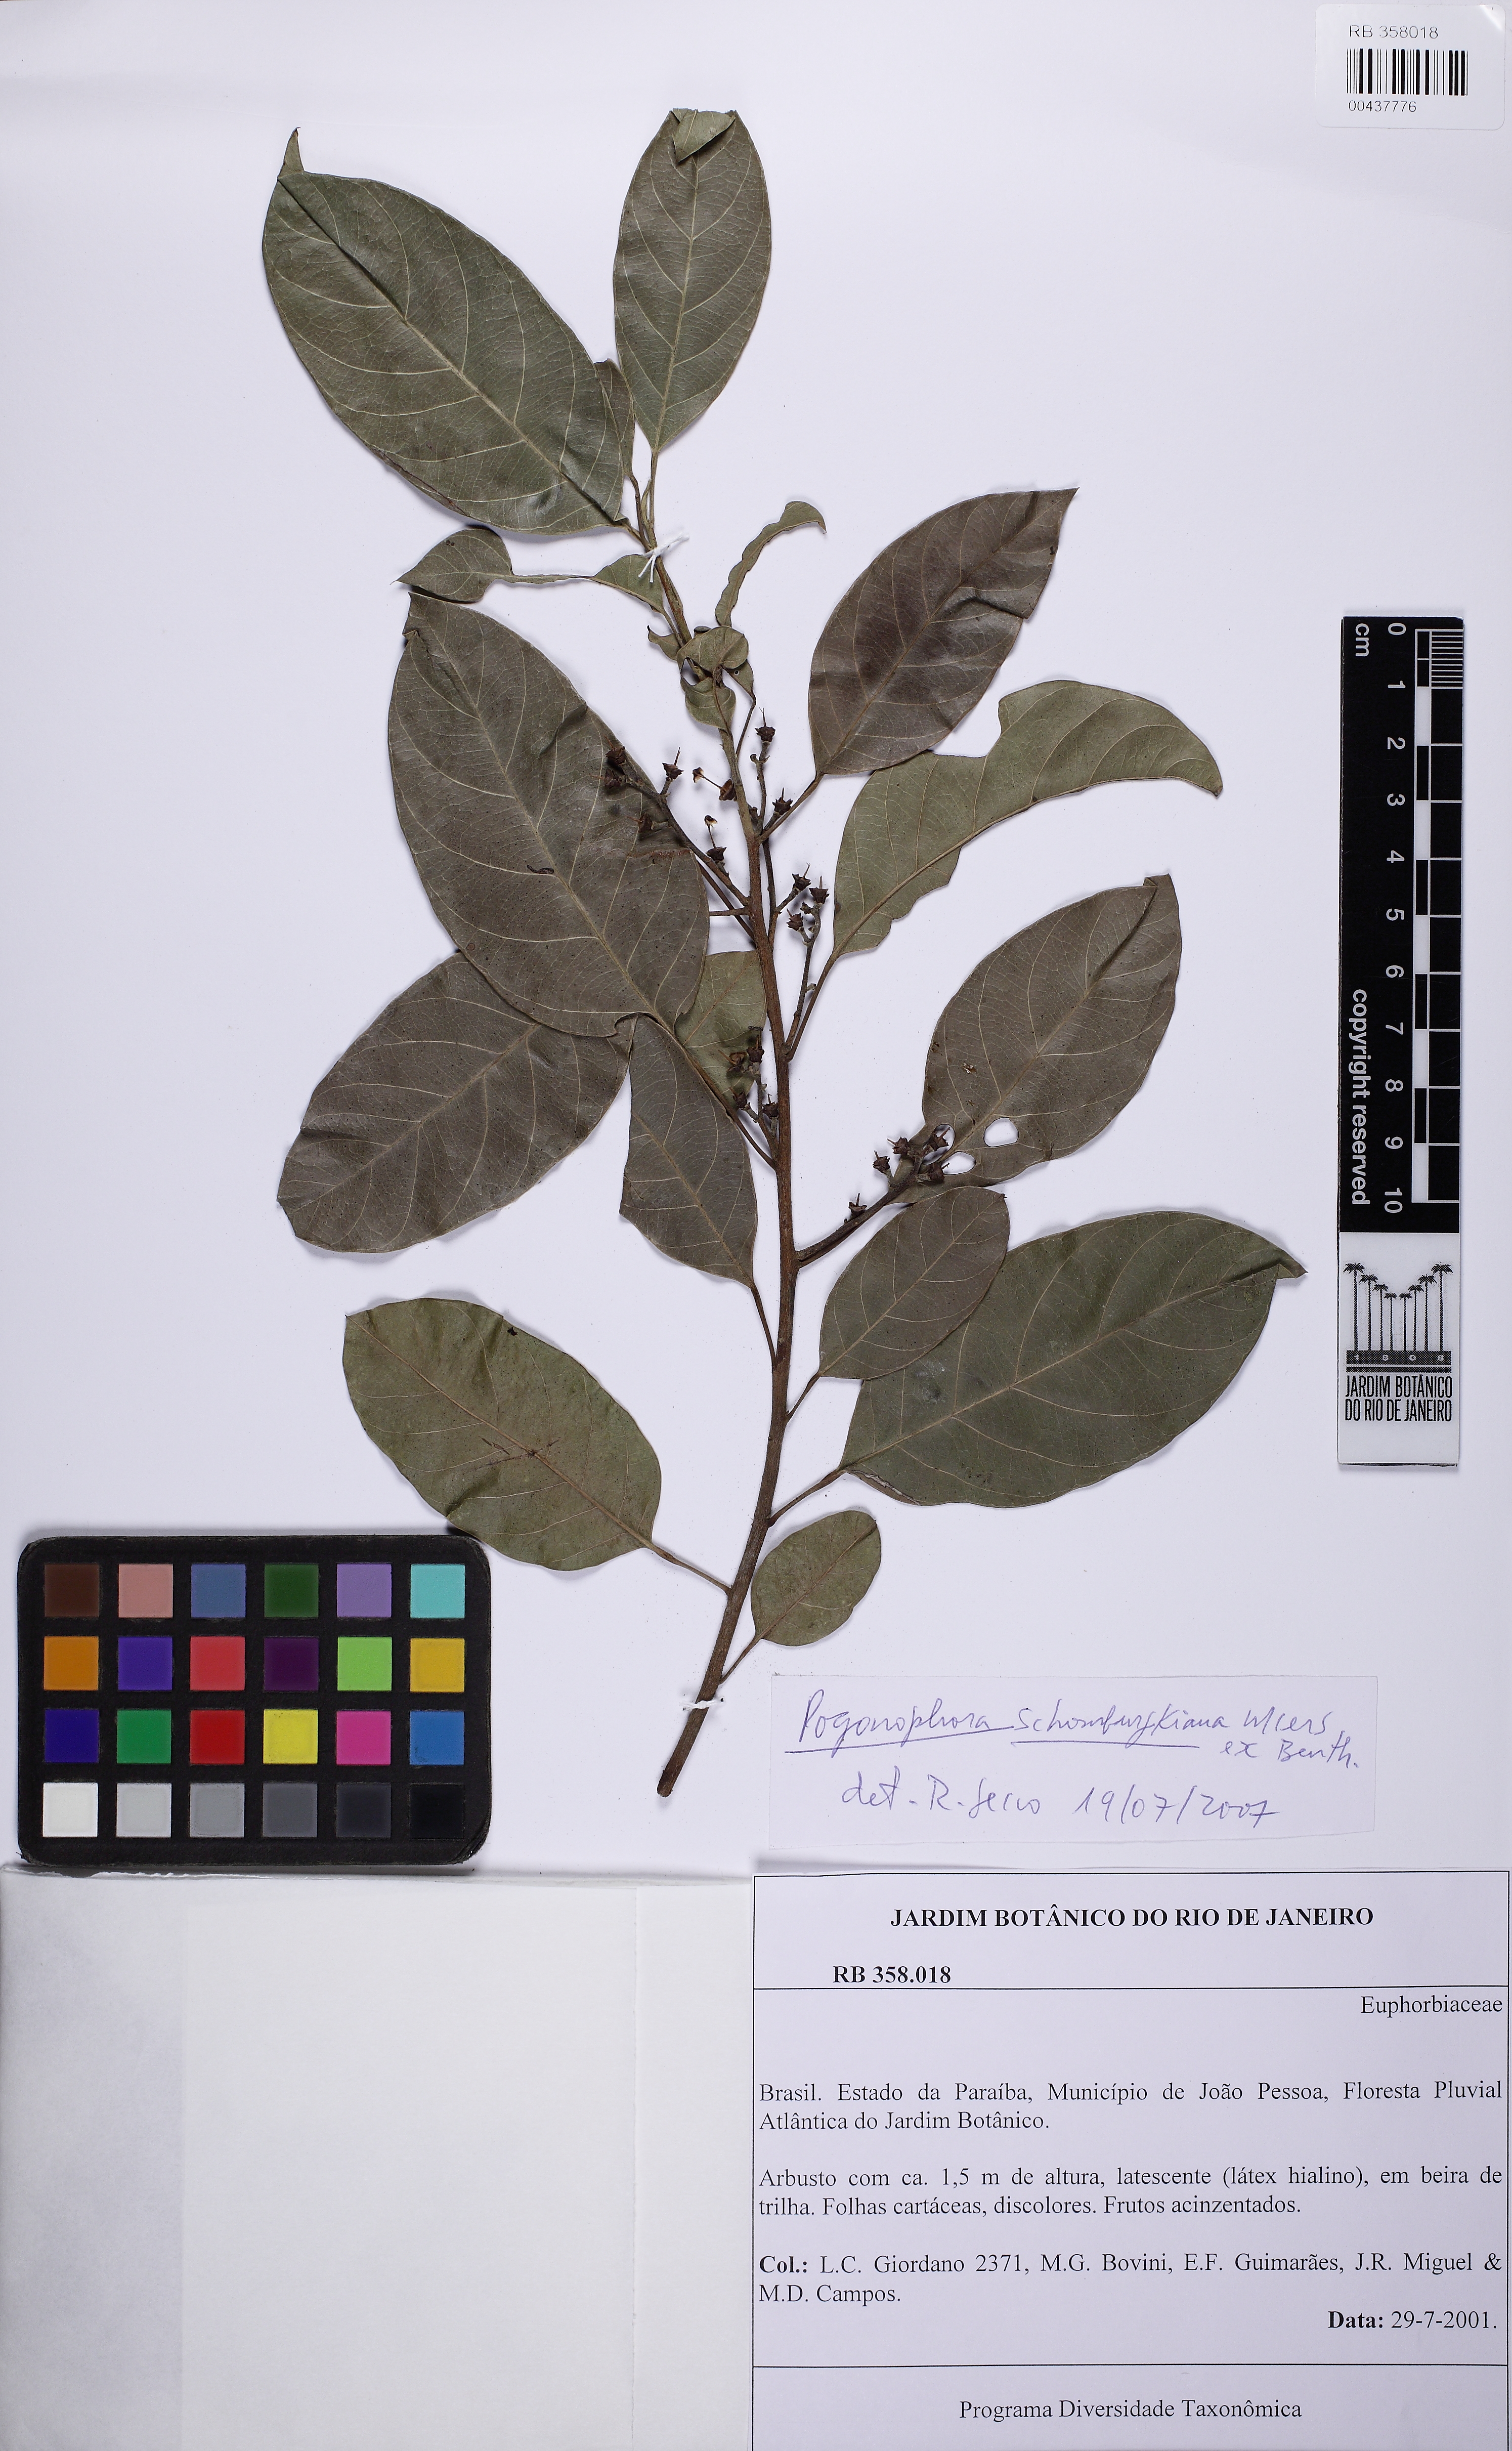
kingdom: Plantae
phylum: Tracheophyta
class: Magnoliopsida
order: Malpighiales
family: Peraceae
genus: Pogonophora
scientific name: Pogonophora schomburgkiana
